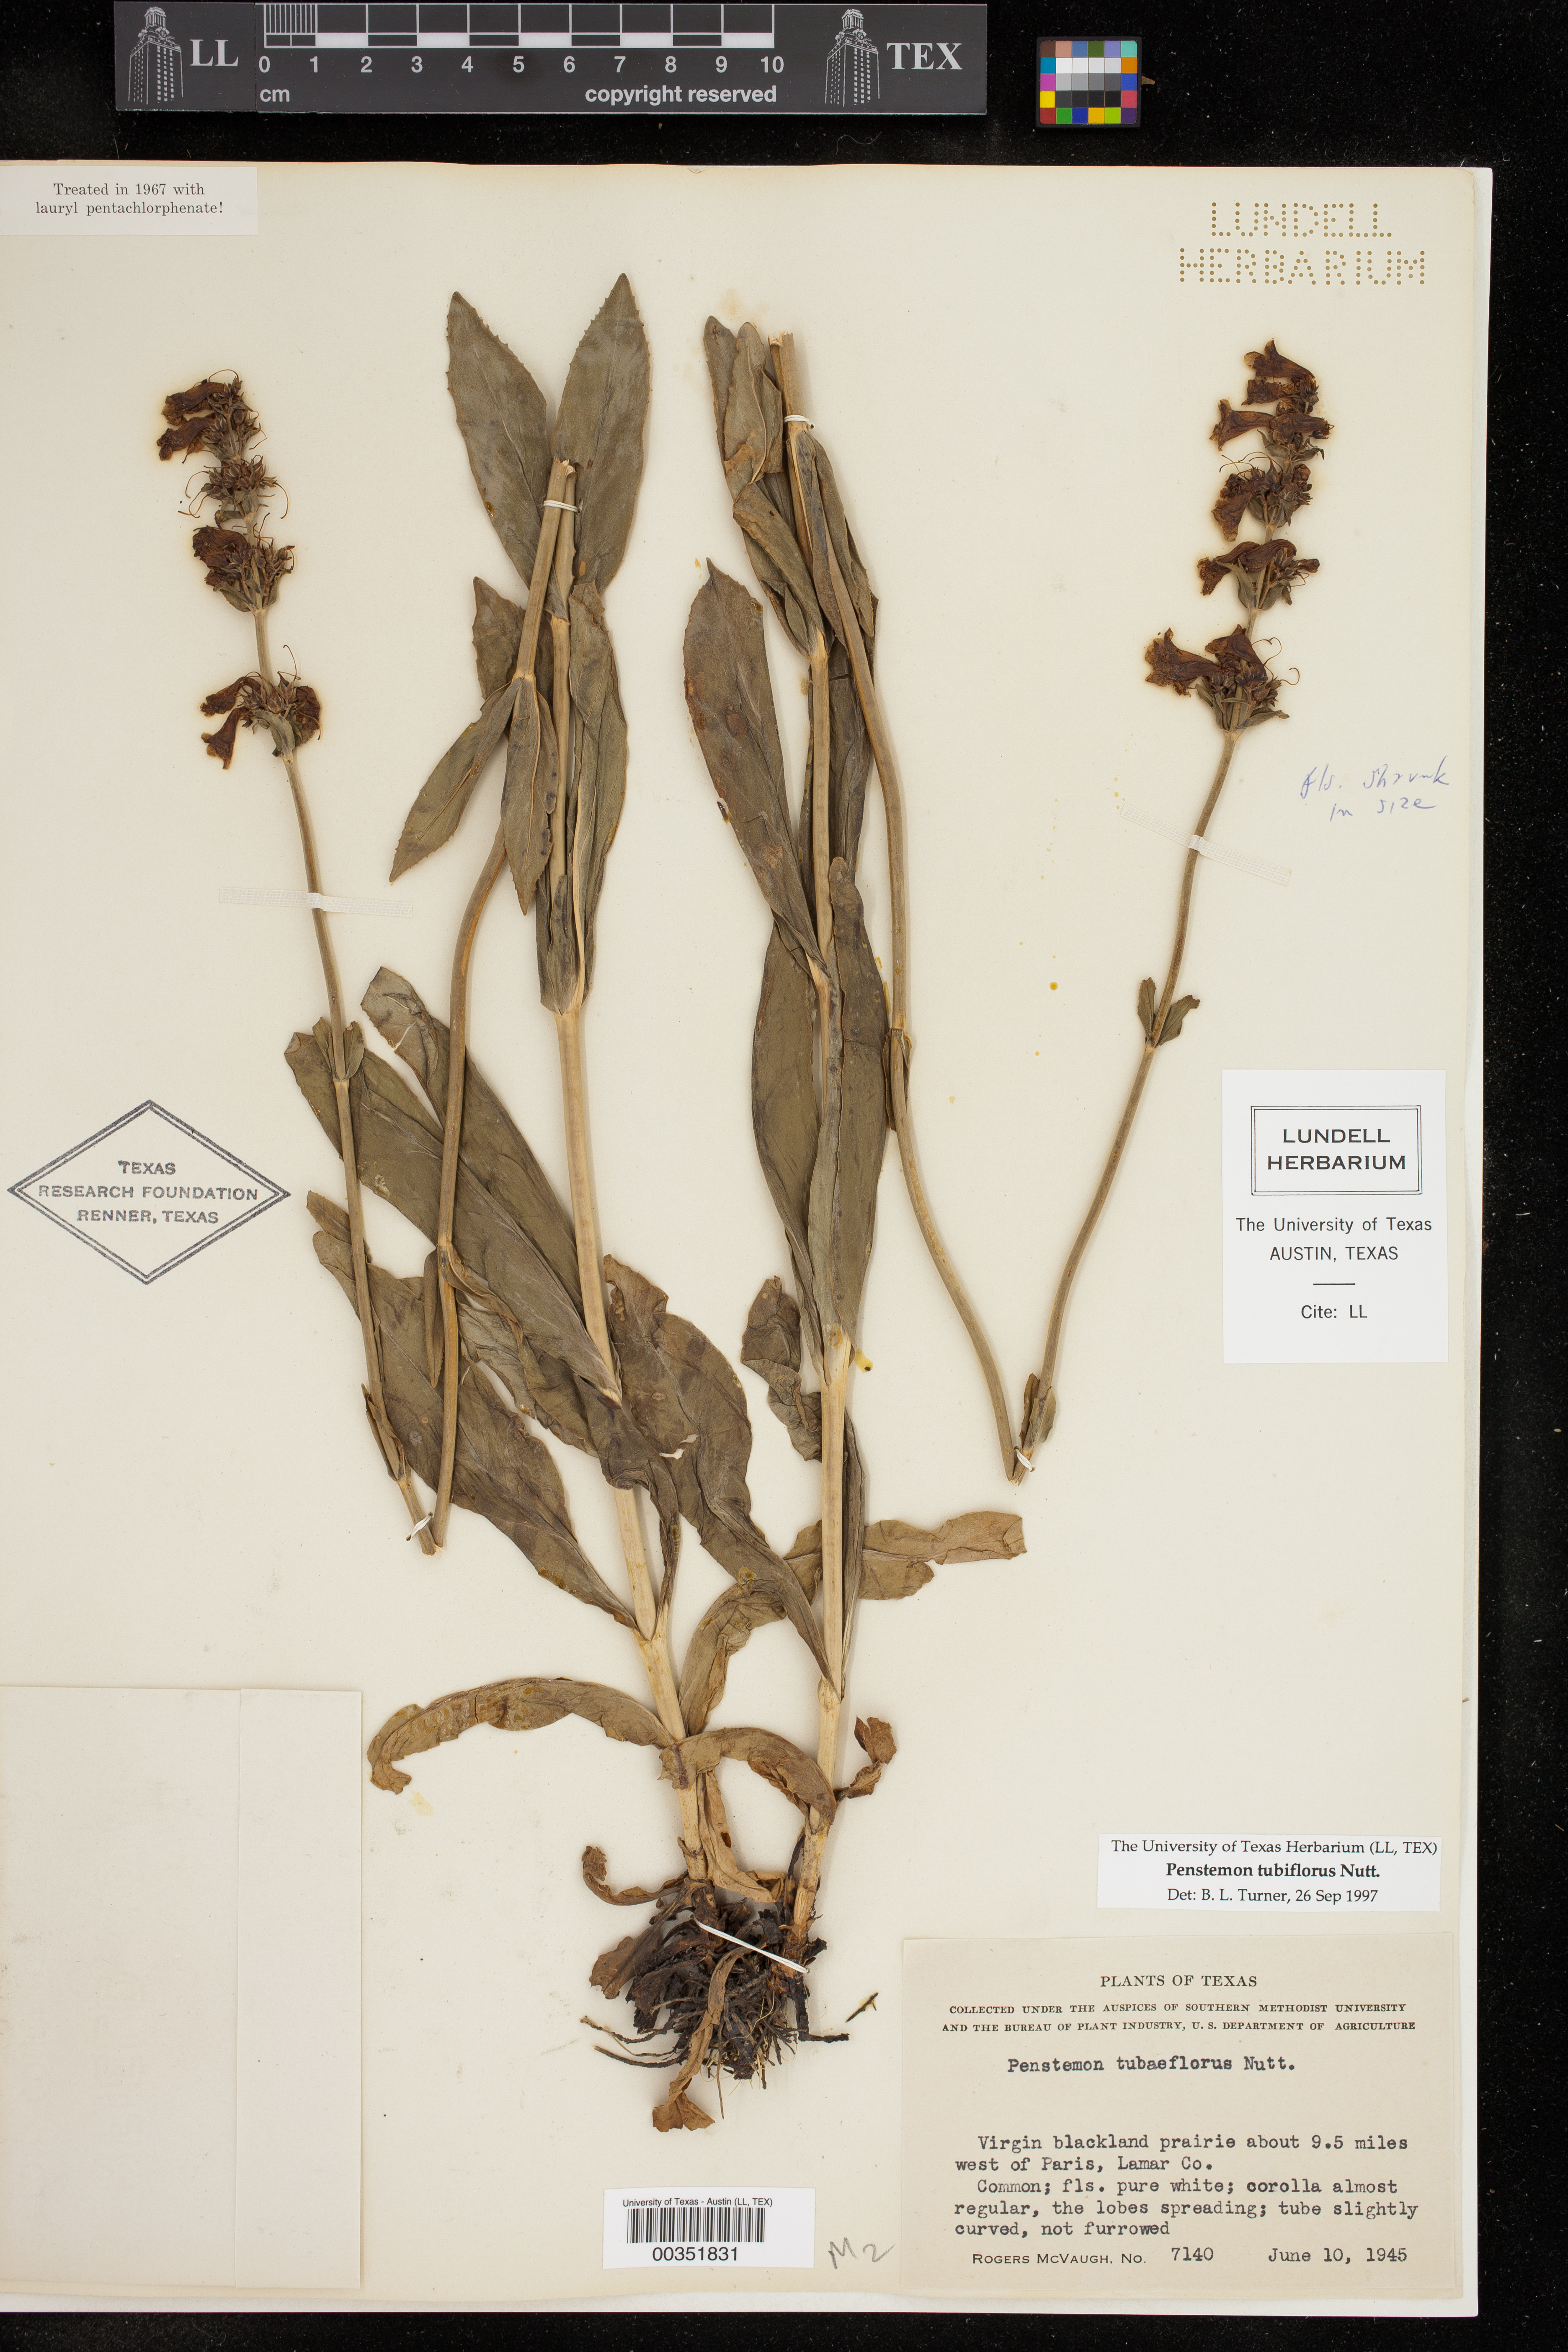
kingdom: Plantae
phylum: Tracheophyta
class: Magnoliopsida
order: Lamiales
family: Plantaginaceae
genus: Penstemon
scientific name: Penstemon tubaeflorus
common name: White wand beardtongue
